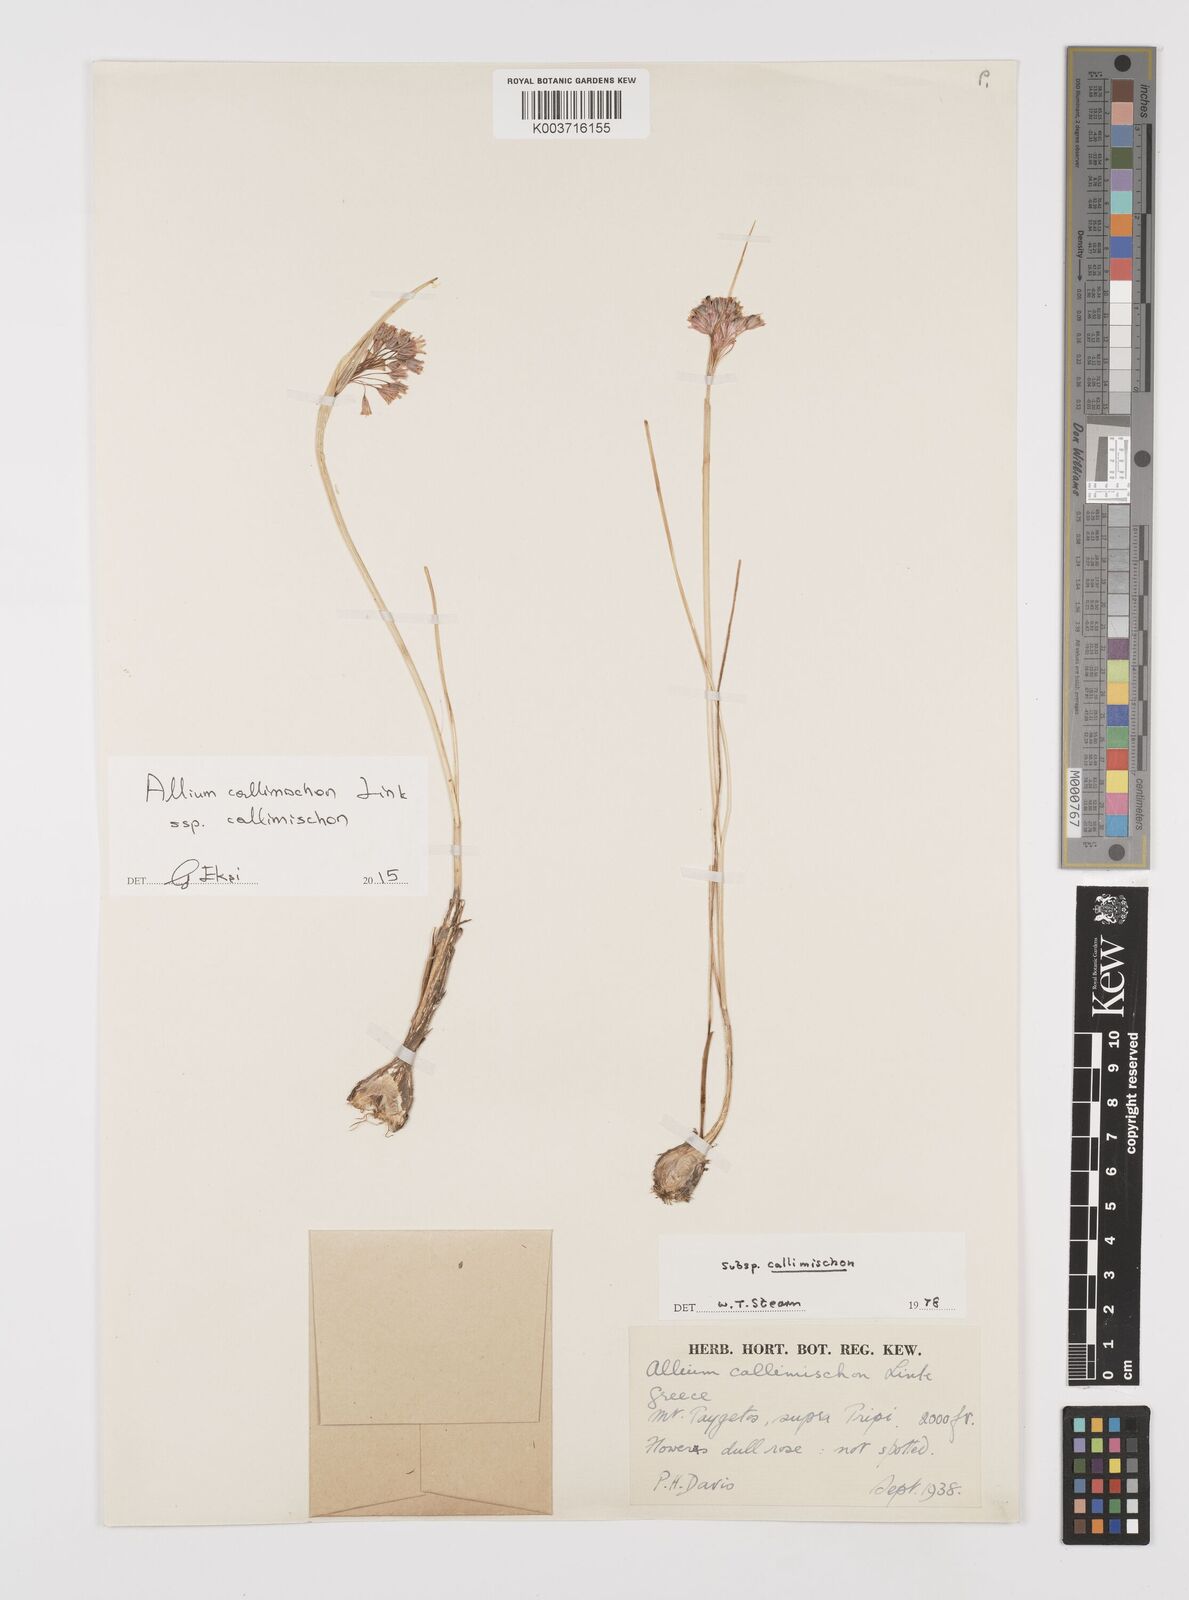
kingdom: Plantae
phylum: Tracheophyta
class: Liliopsida
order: Asparagales
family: Amaryllidaceae
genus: Allium
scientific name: Allium callimischon
